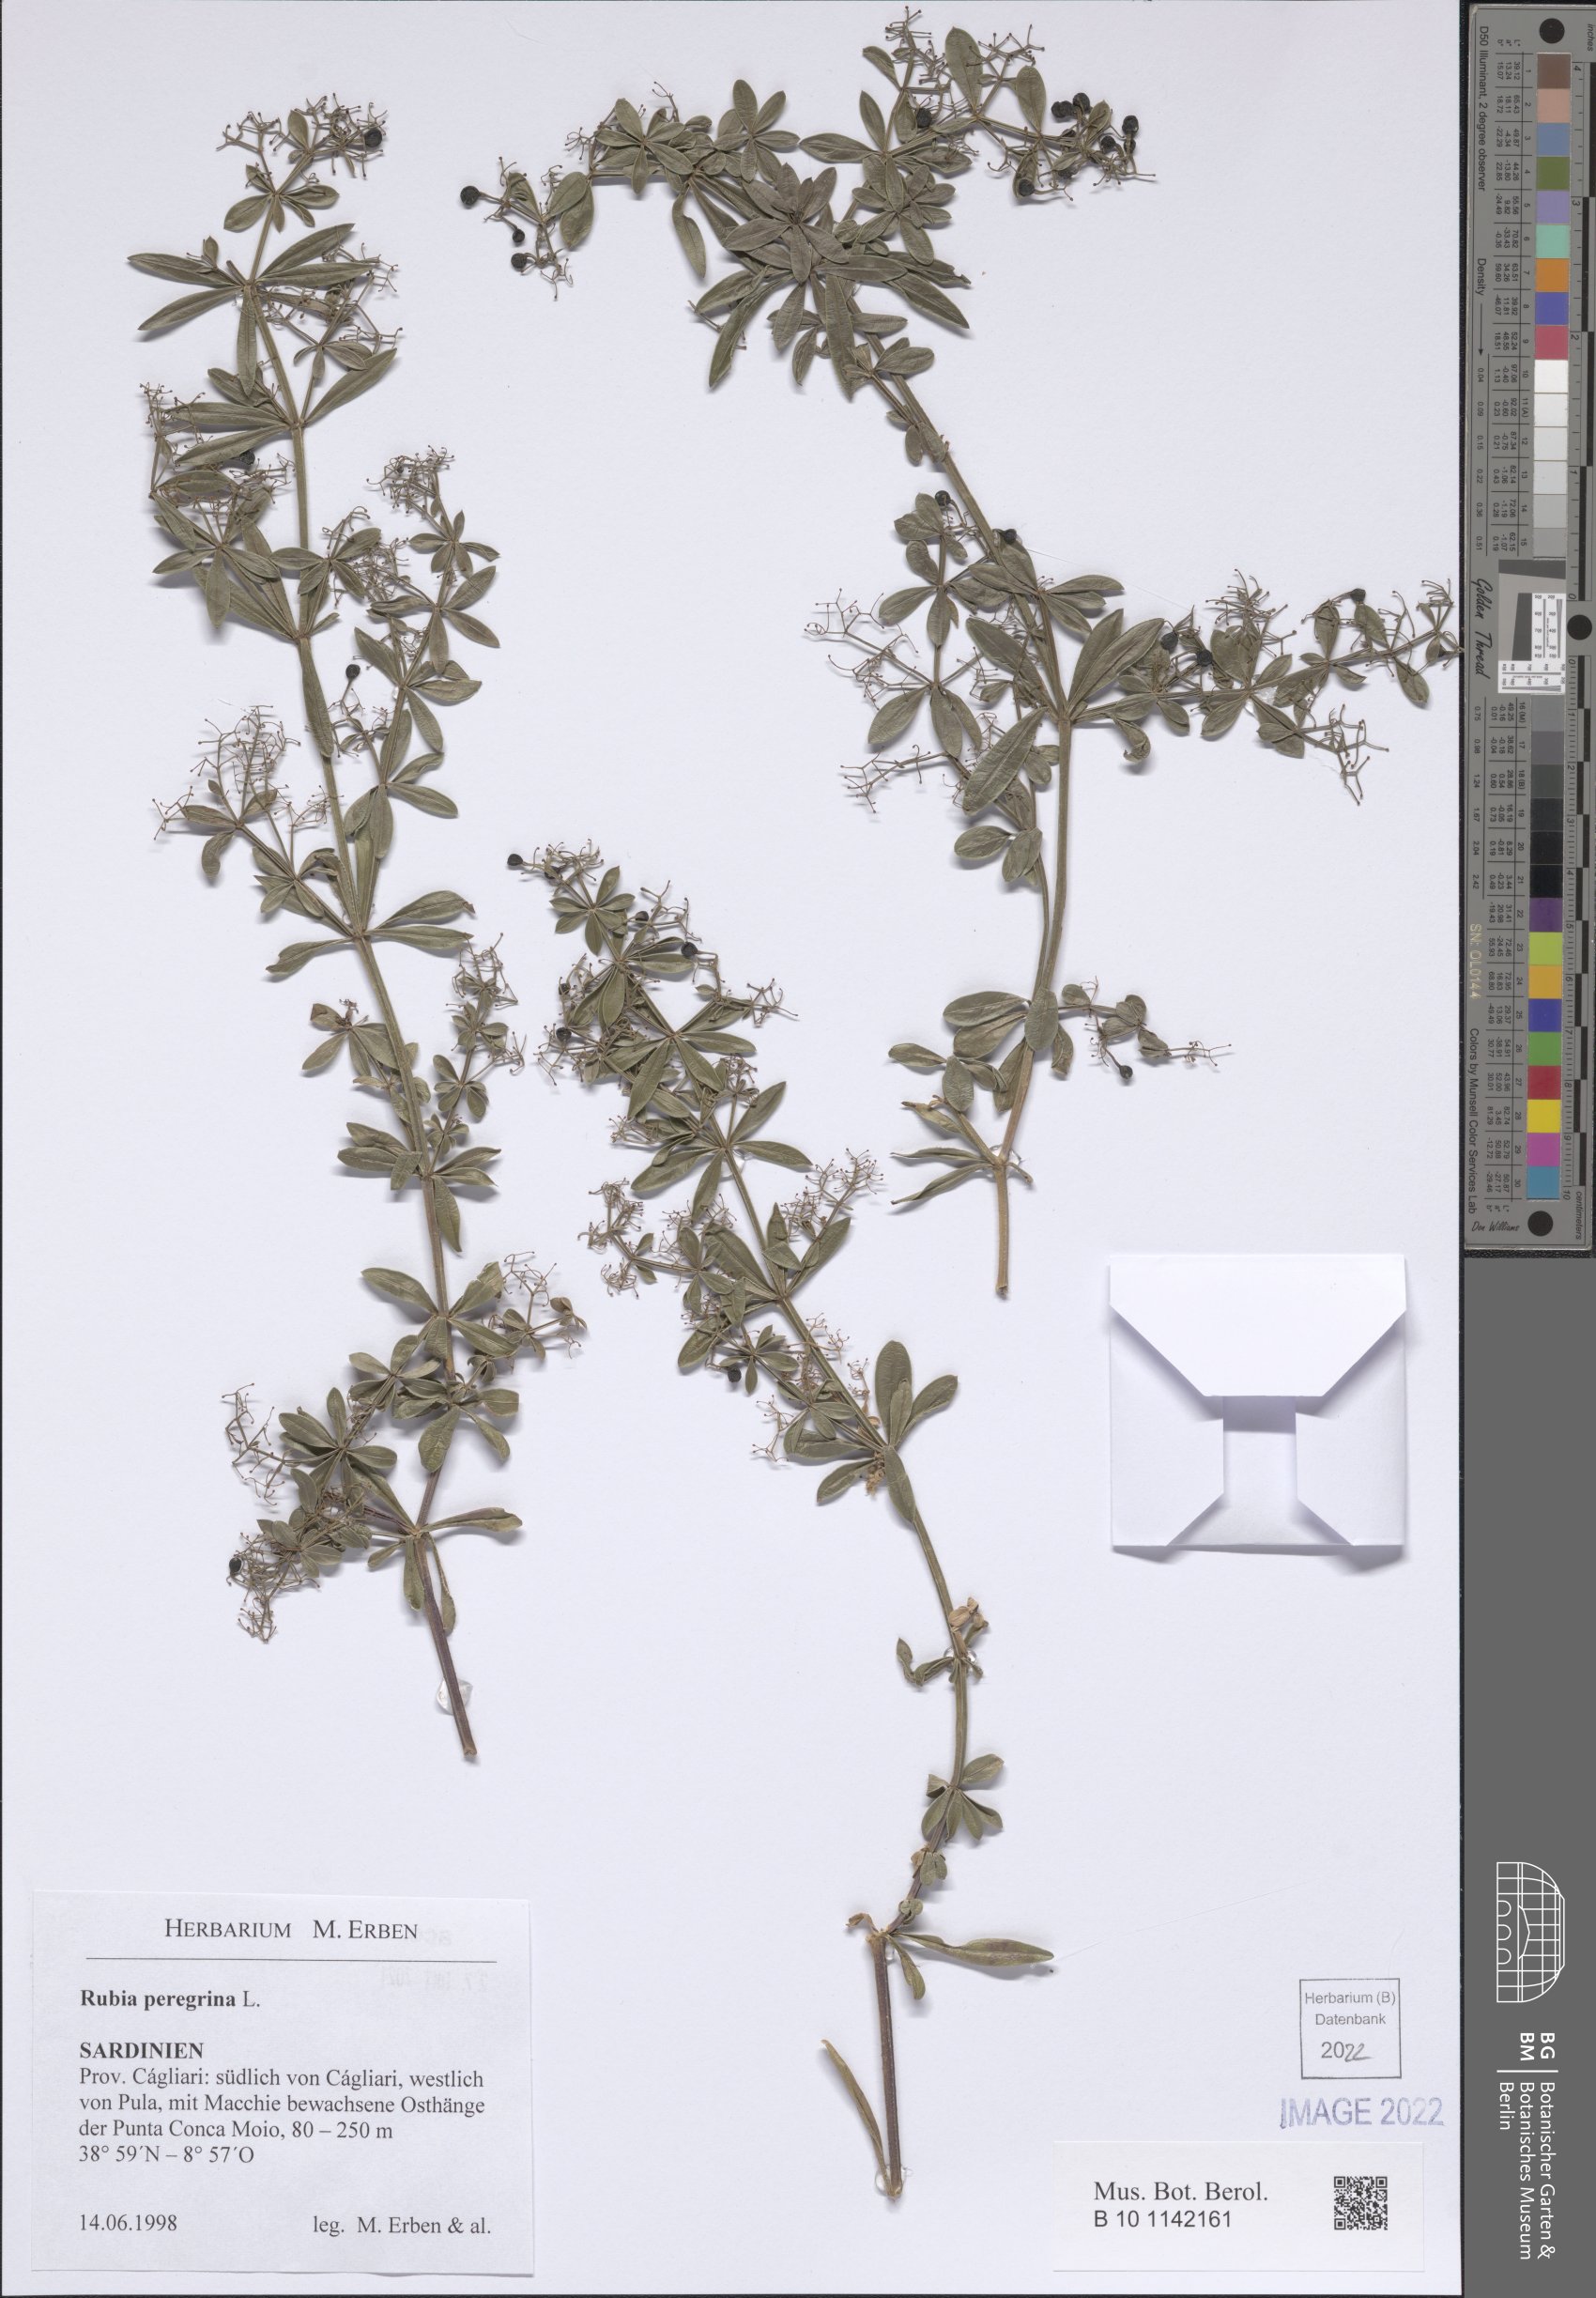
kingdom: Plantae
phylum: Tracheophyta
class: Magnoliopsida
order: Gentianales
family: Rubiaceae
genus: Rubia
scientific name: Rubia peregrina
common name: Wild madder
